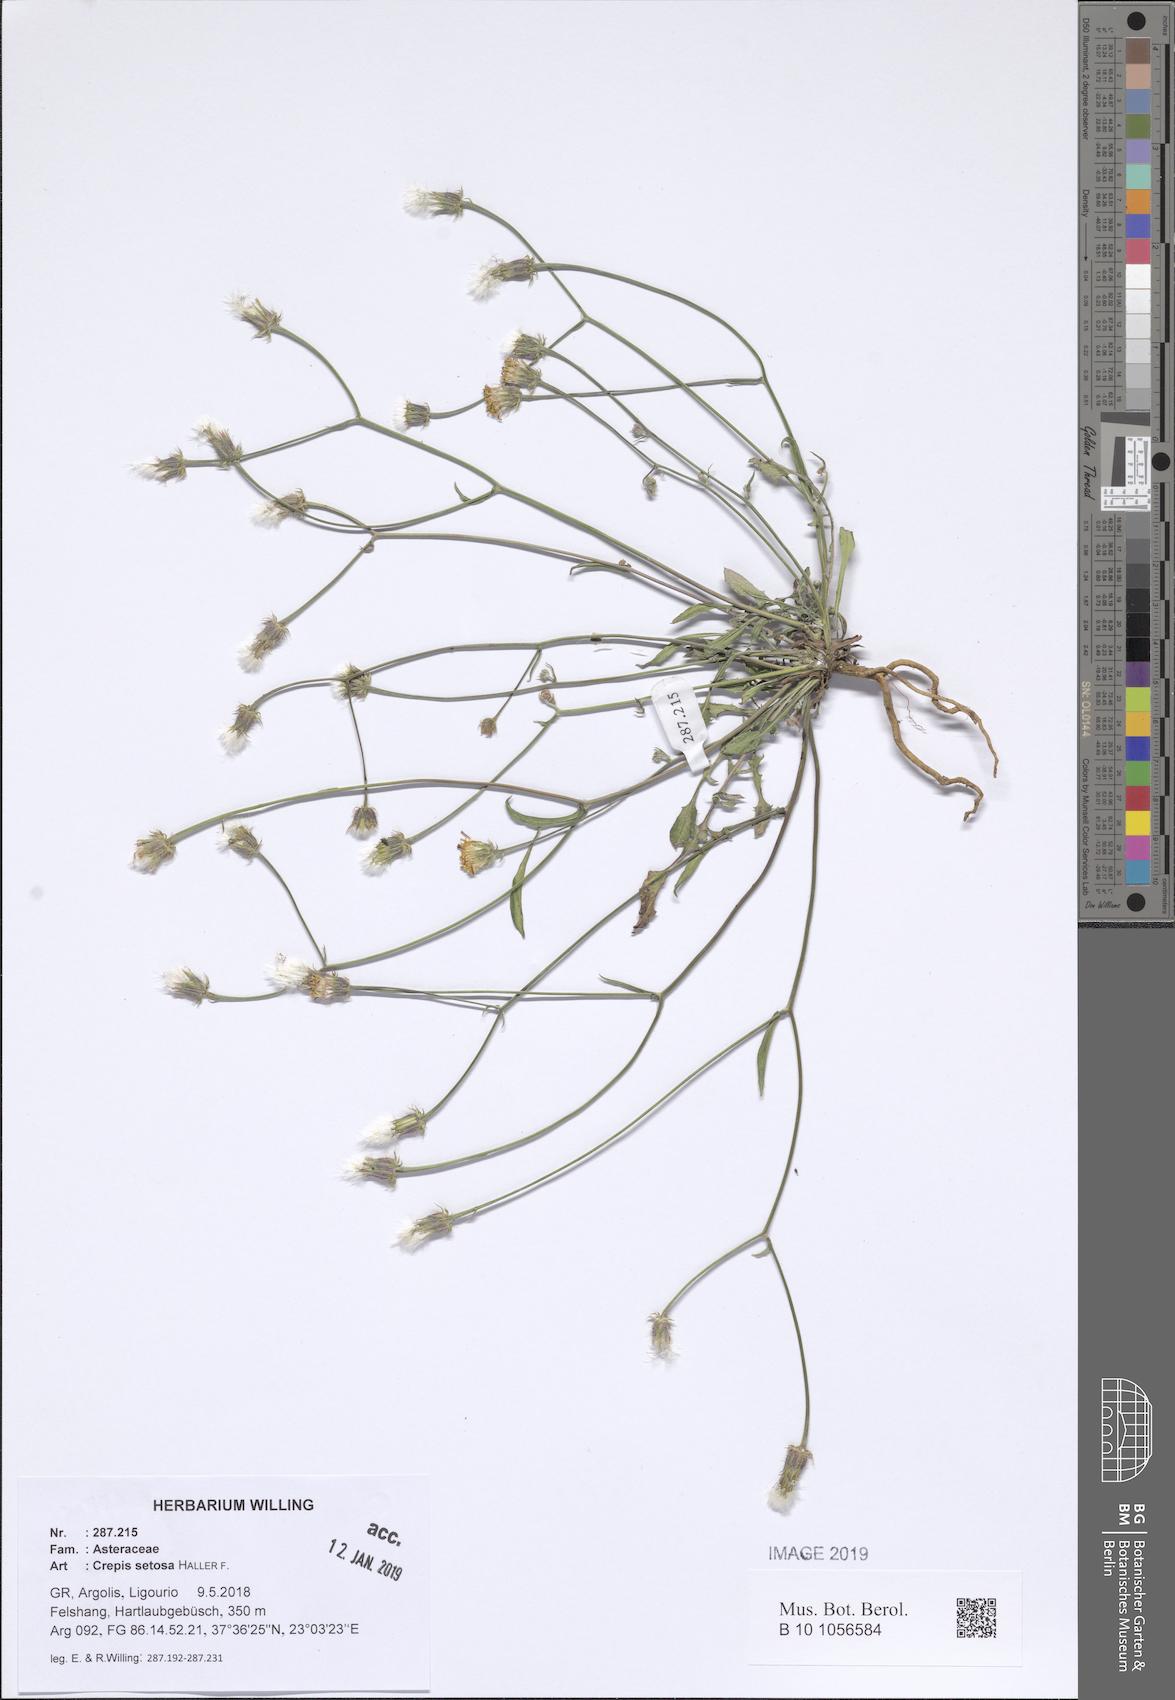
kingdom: Plantae
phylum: Tracheophyta
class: Magnoliopsida
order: Asterales
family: Asteraceae
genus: Crepis
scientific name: Crepis setosa
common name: Bristly hawk's-beard
